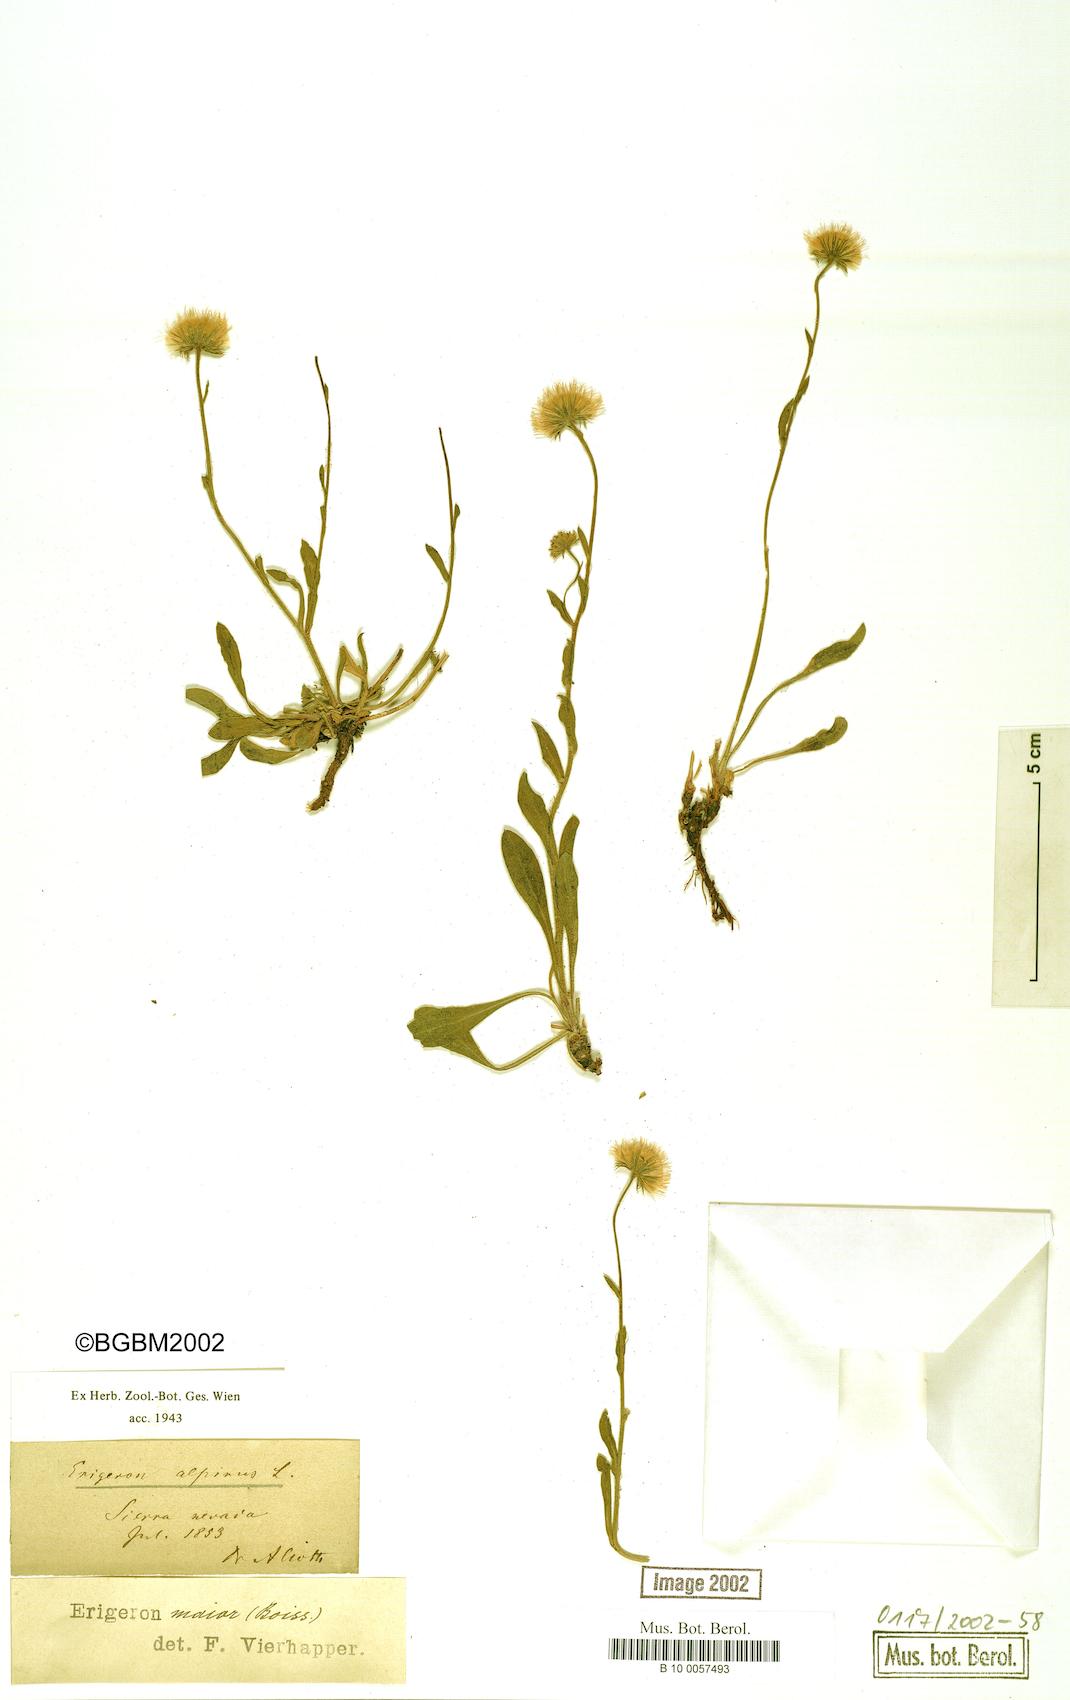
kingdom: Plantae
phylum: Tracheophyta
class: Magnoliopsida
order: Asterales
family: Asteraceae
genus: Erigeron
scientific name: Erigeron alpinus
